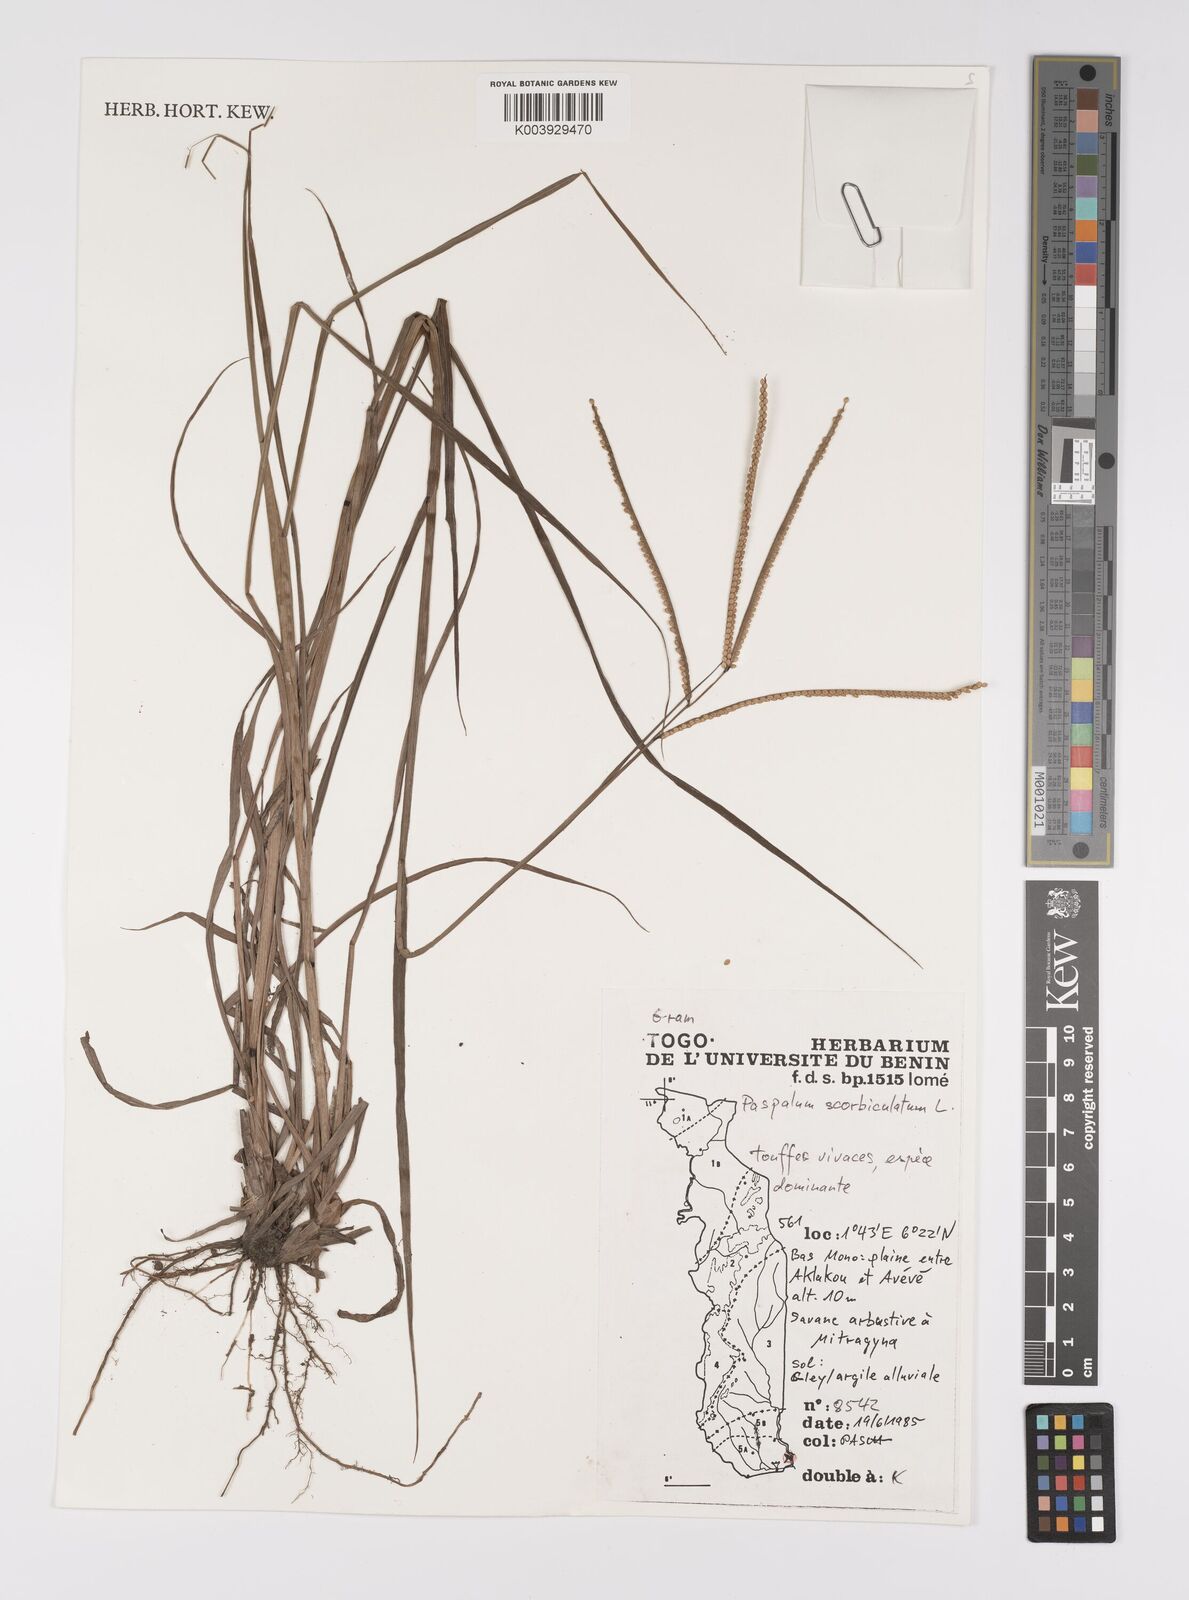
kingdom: Plantae
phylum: Tracheophyta
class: Liliopsida
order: Poales
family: Poaceae
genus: Paspalum
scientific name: Paspalum scrobiculatum
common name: Kodo millet
